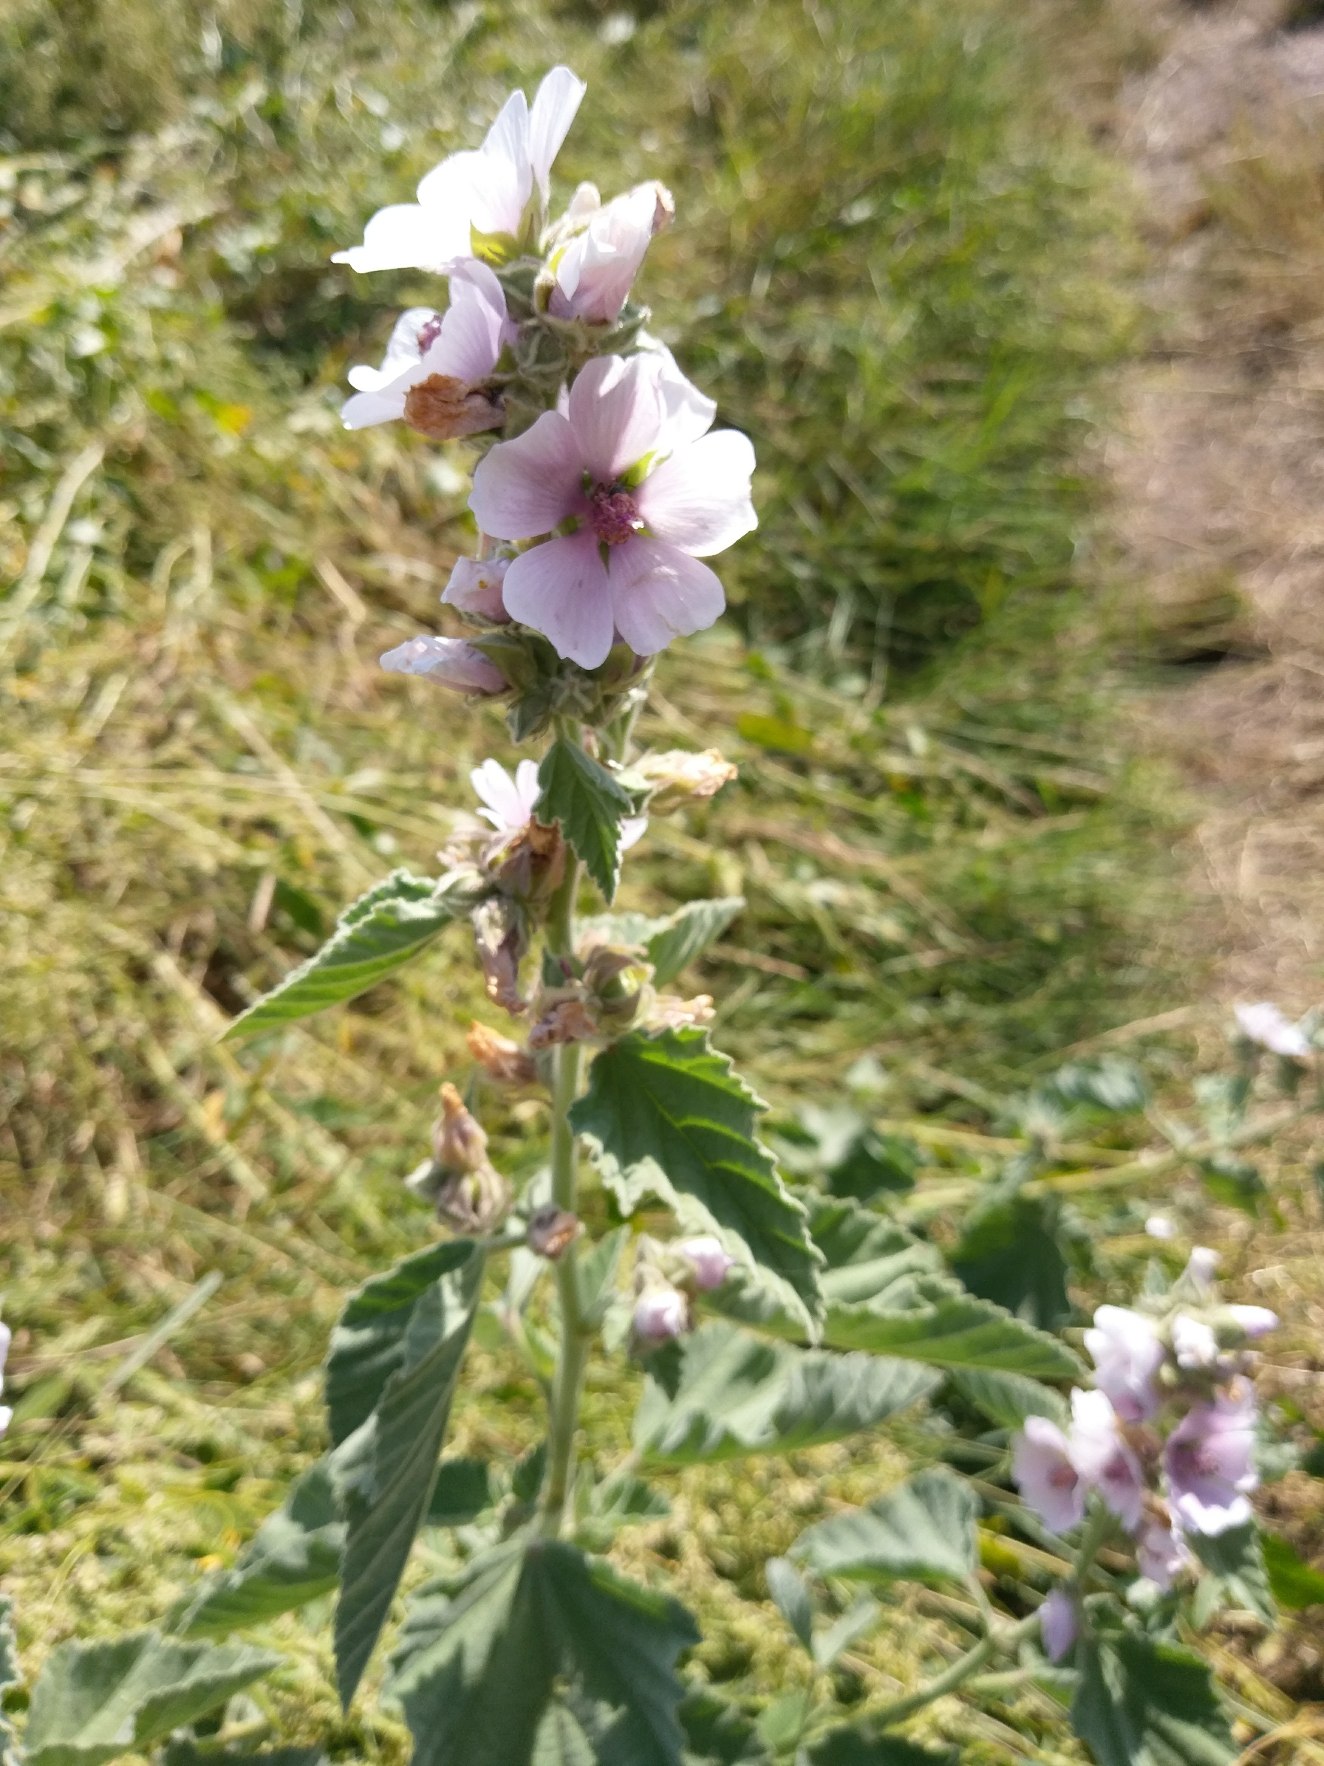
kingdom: Plantae
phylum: Tracheophyta
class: Magnoliopsida
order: Malvales
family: Malvaceae
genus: Althaea
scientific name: Althaea officinalis
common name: Lægestokrose
